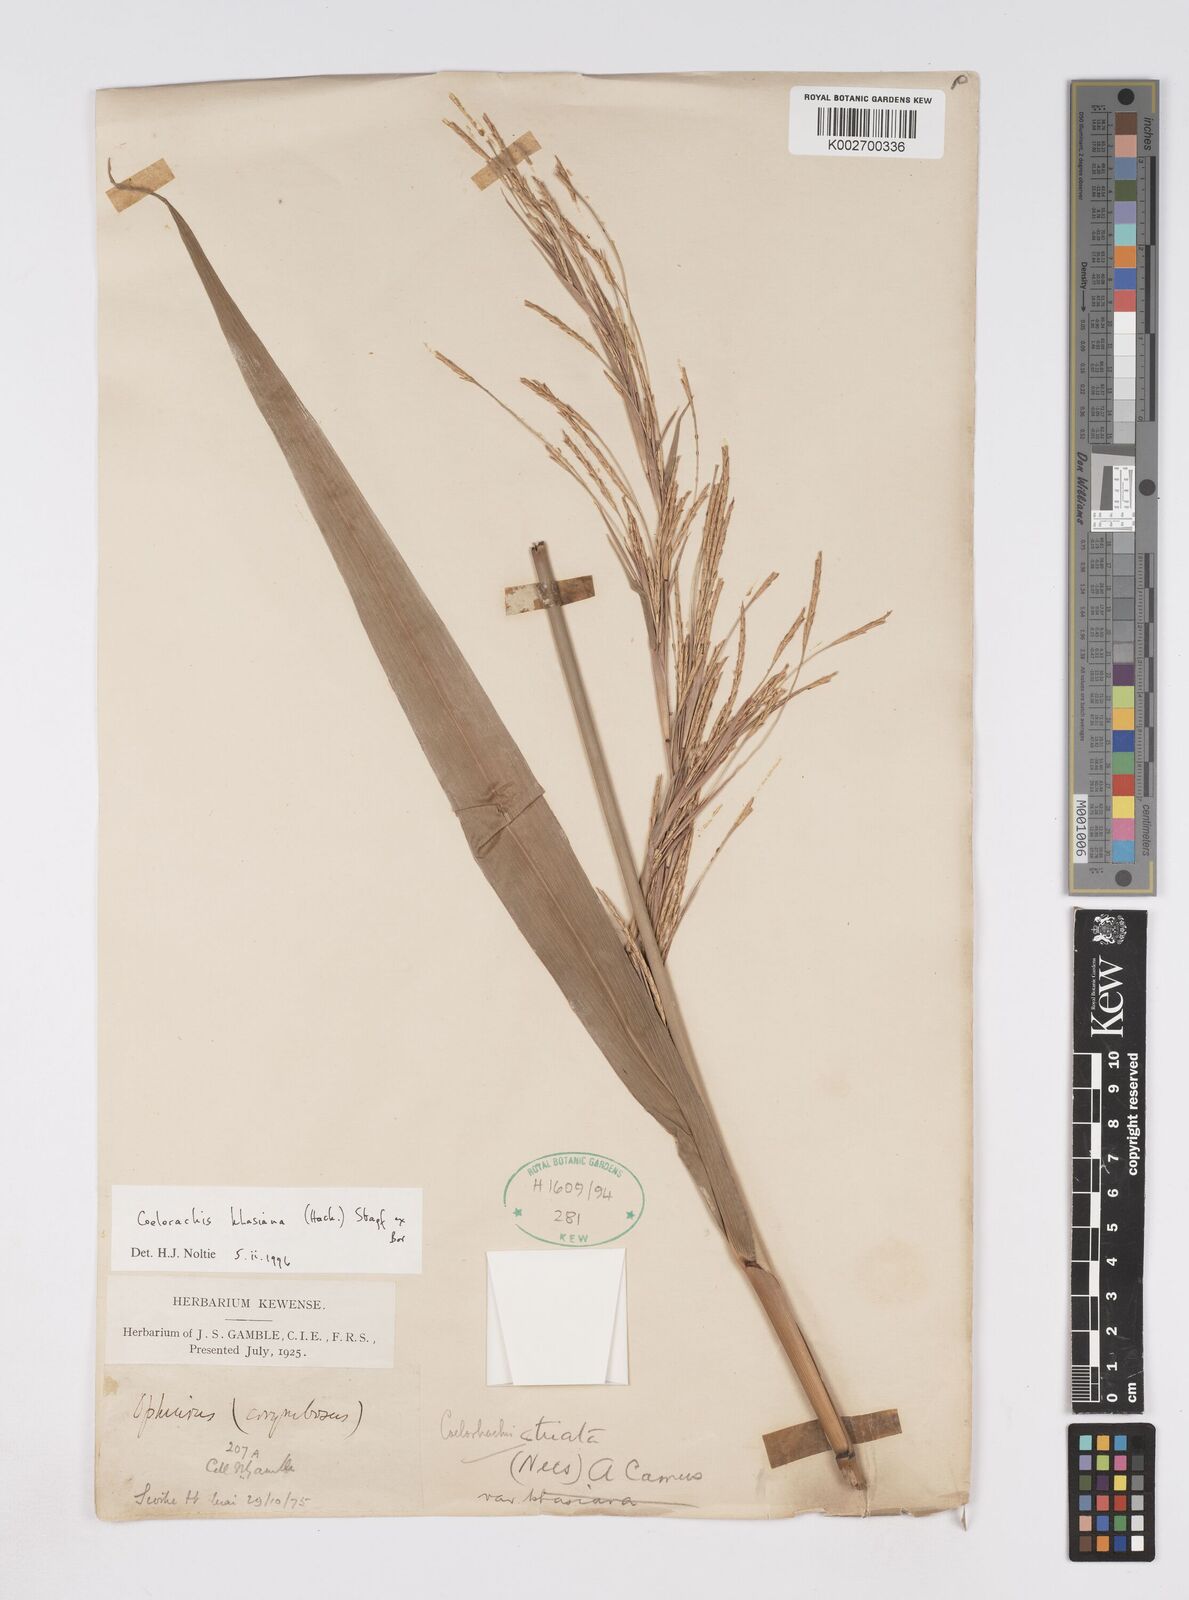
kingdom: Plantae
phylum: Tracheophyta
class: Liliopsida
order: Poales
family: Poaceae
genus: Rottboellia
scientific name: Rottboellia striata
